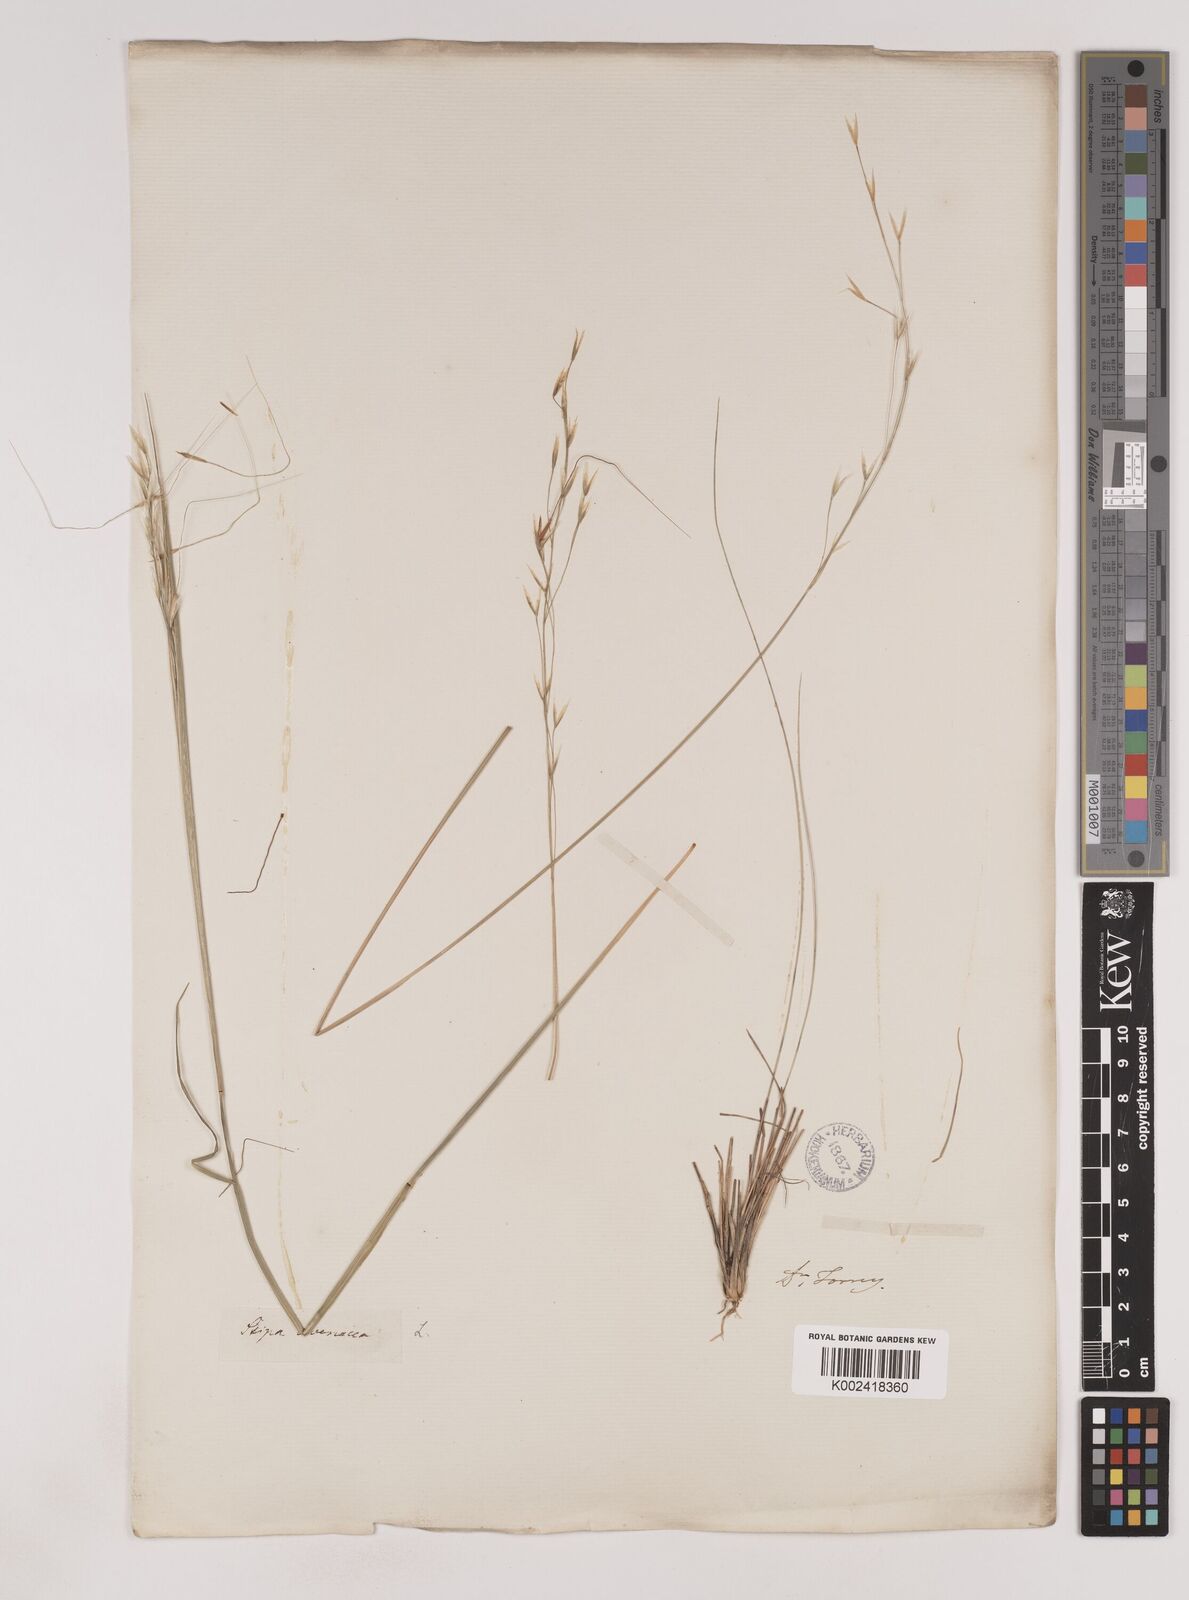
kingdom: Plantae
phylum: Tracheophyta
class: Liliopsida
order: Poales
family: Poaceae
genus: Piptochaetium
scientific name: Piptochaetium avenaceum
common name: Black bunchgrass
